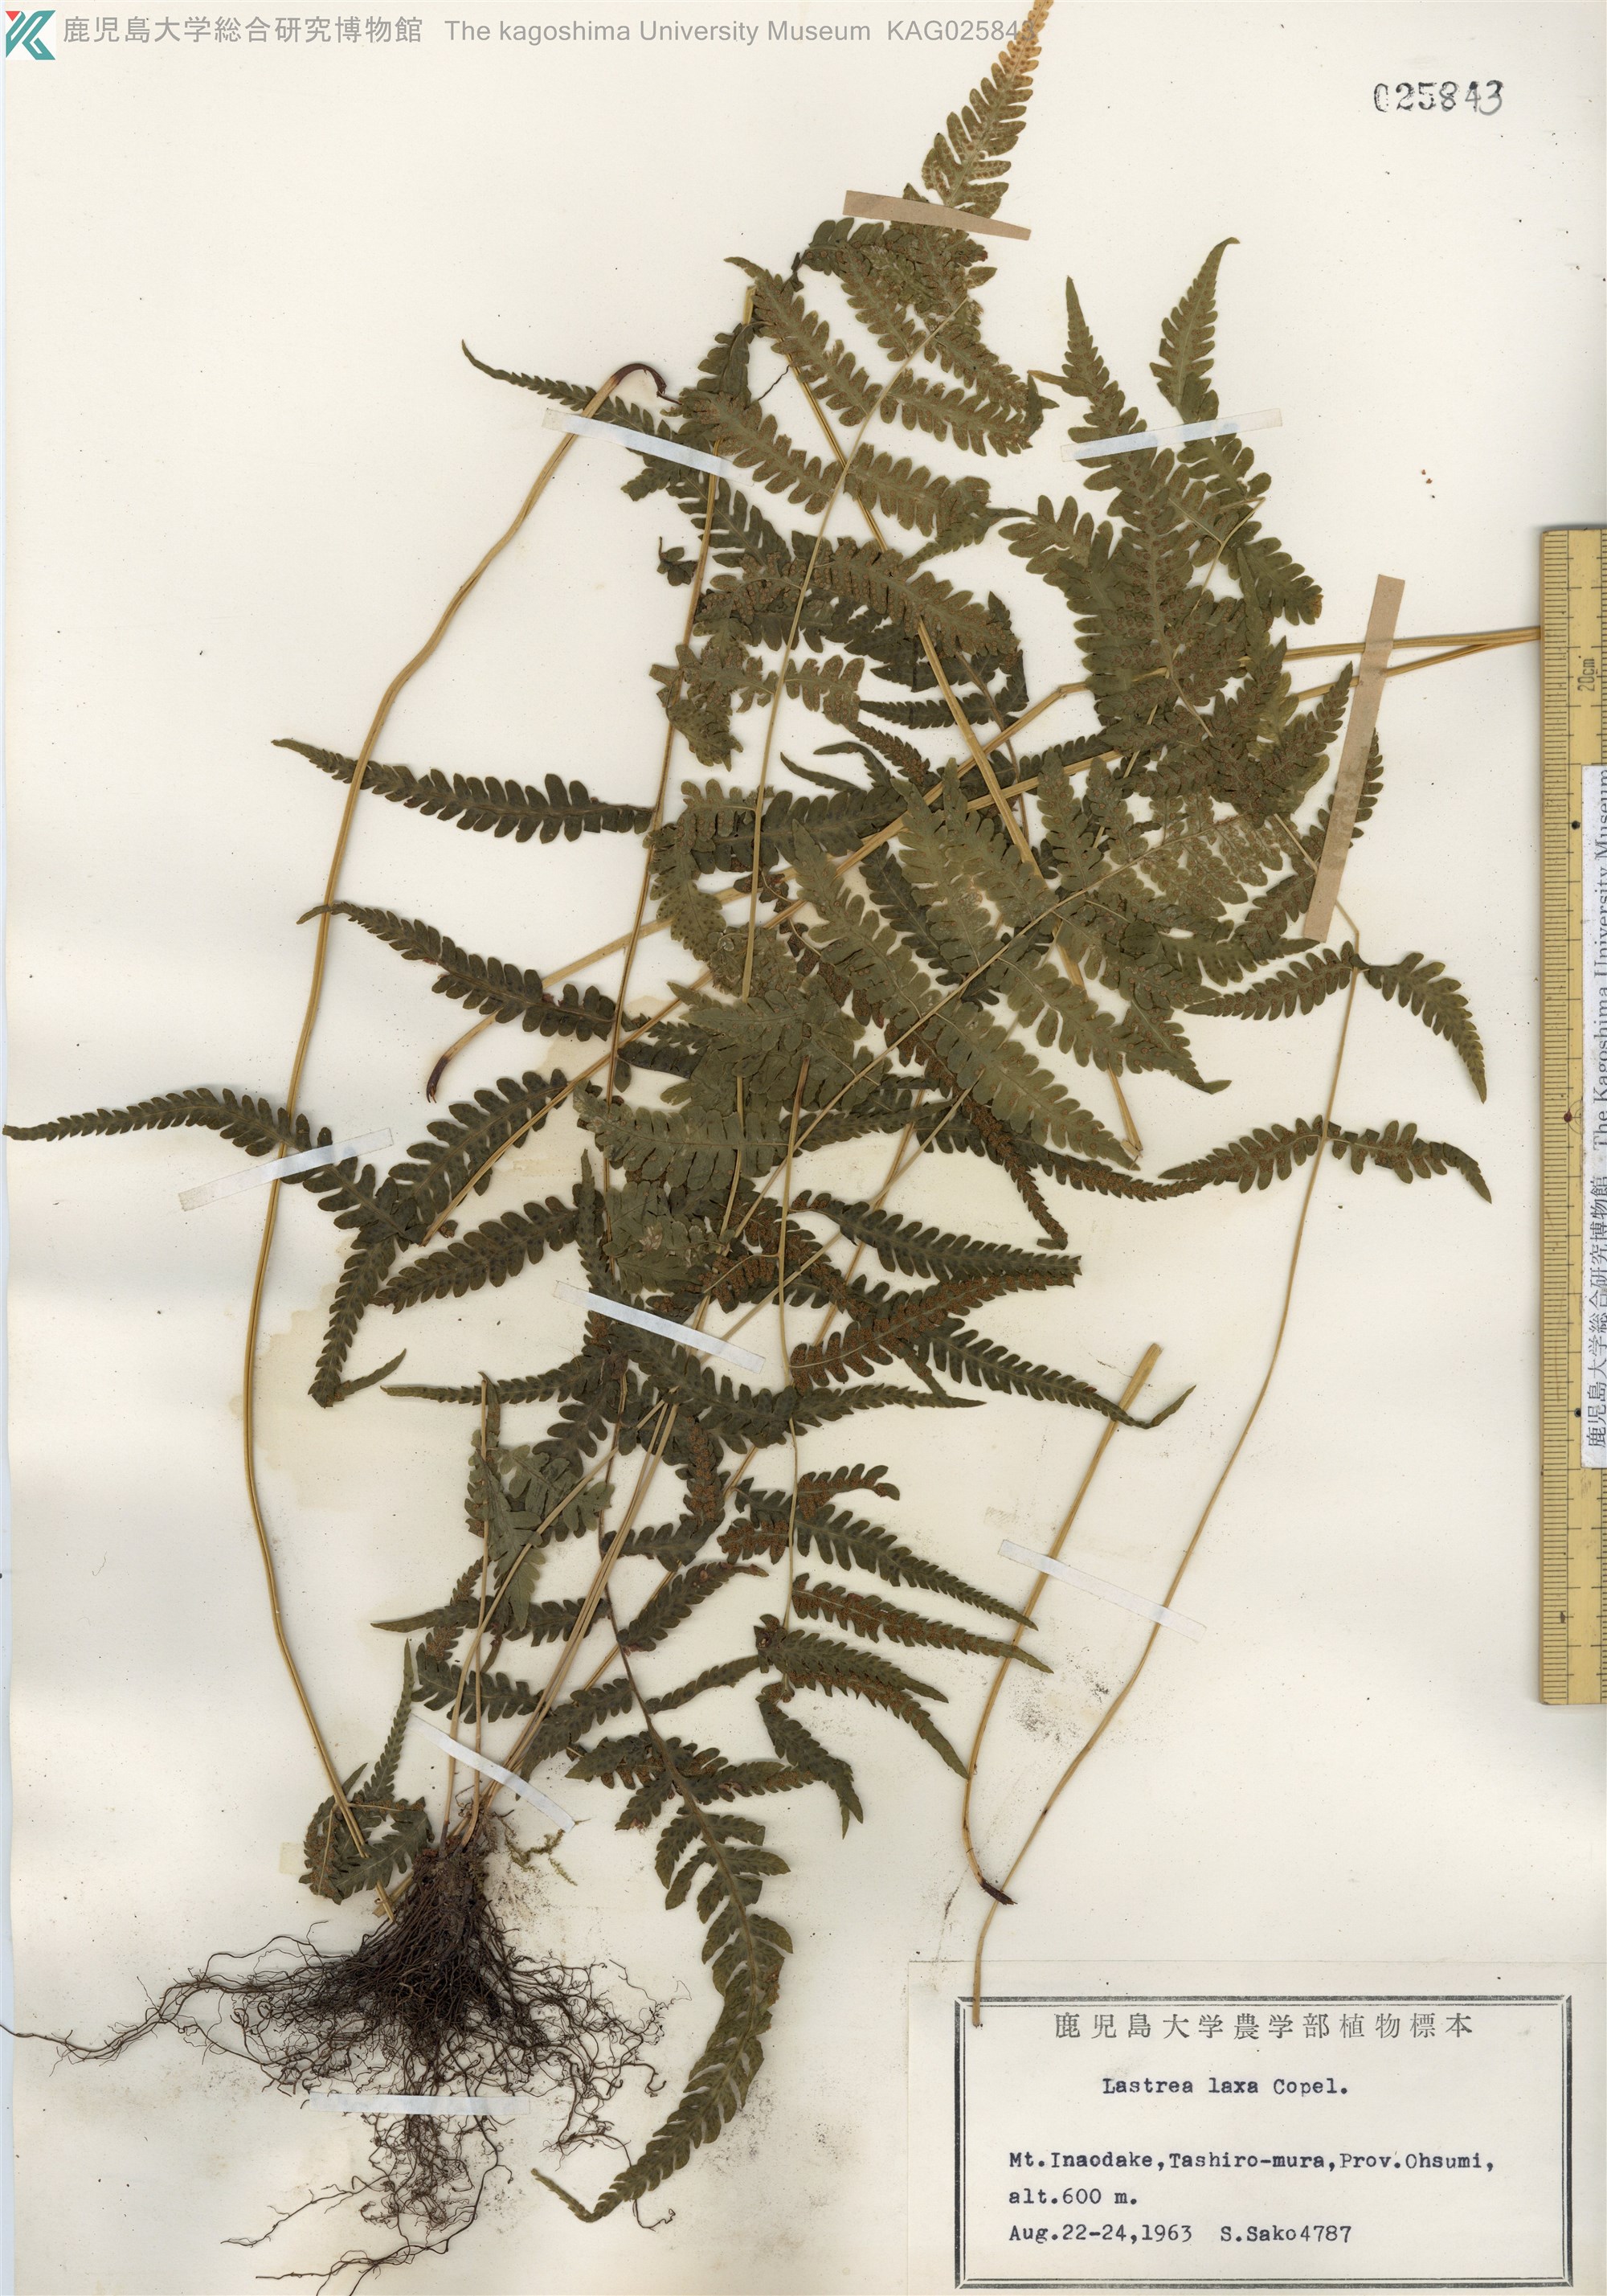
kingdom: Plantae
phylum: Tracheophyta
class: Polypodiopsida
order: Polypodiales
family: Thelypteridaceae
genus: Metathelypteris
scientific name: Metathelypteris laxa
